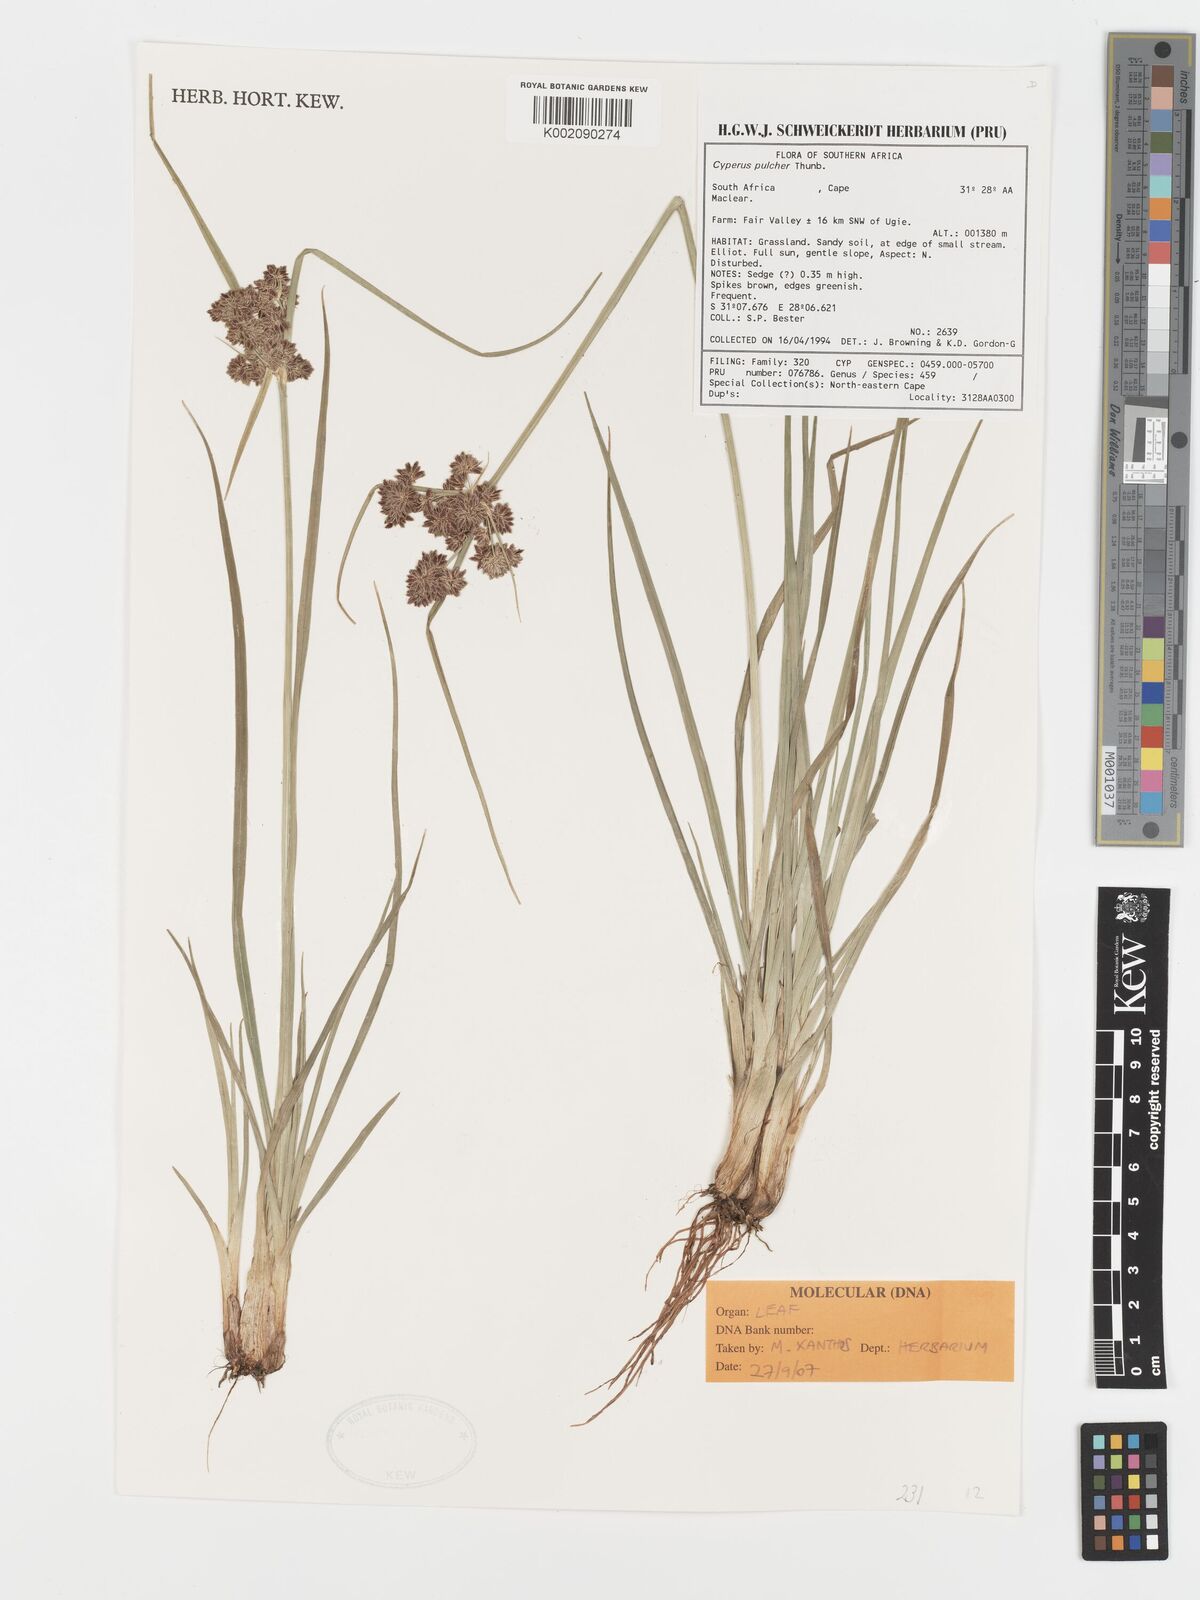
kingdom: Plantae
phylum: Tracheophyta
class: Liliopsida
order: Poales
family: Cyperaceae
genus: Cyperus
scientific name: Cyperus pulcher
